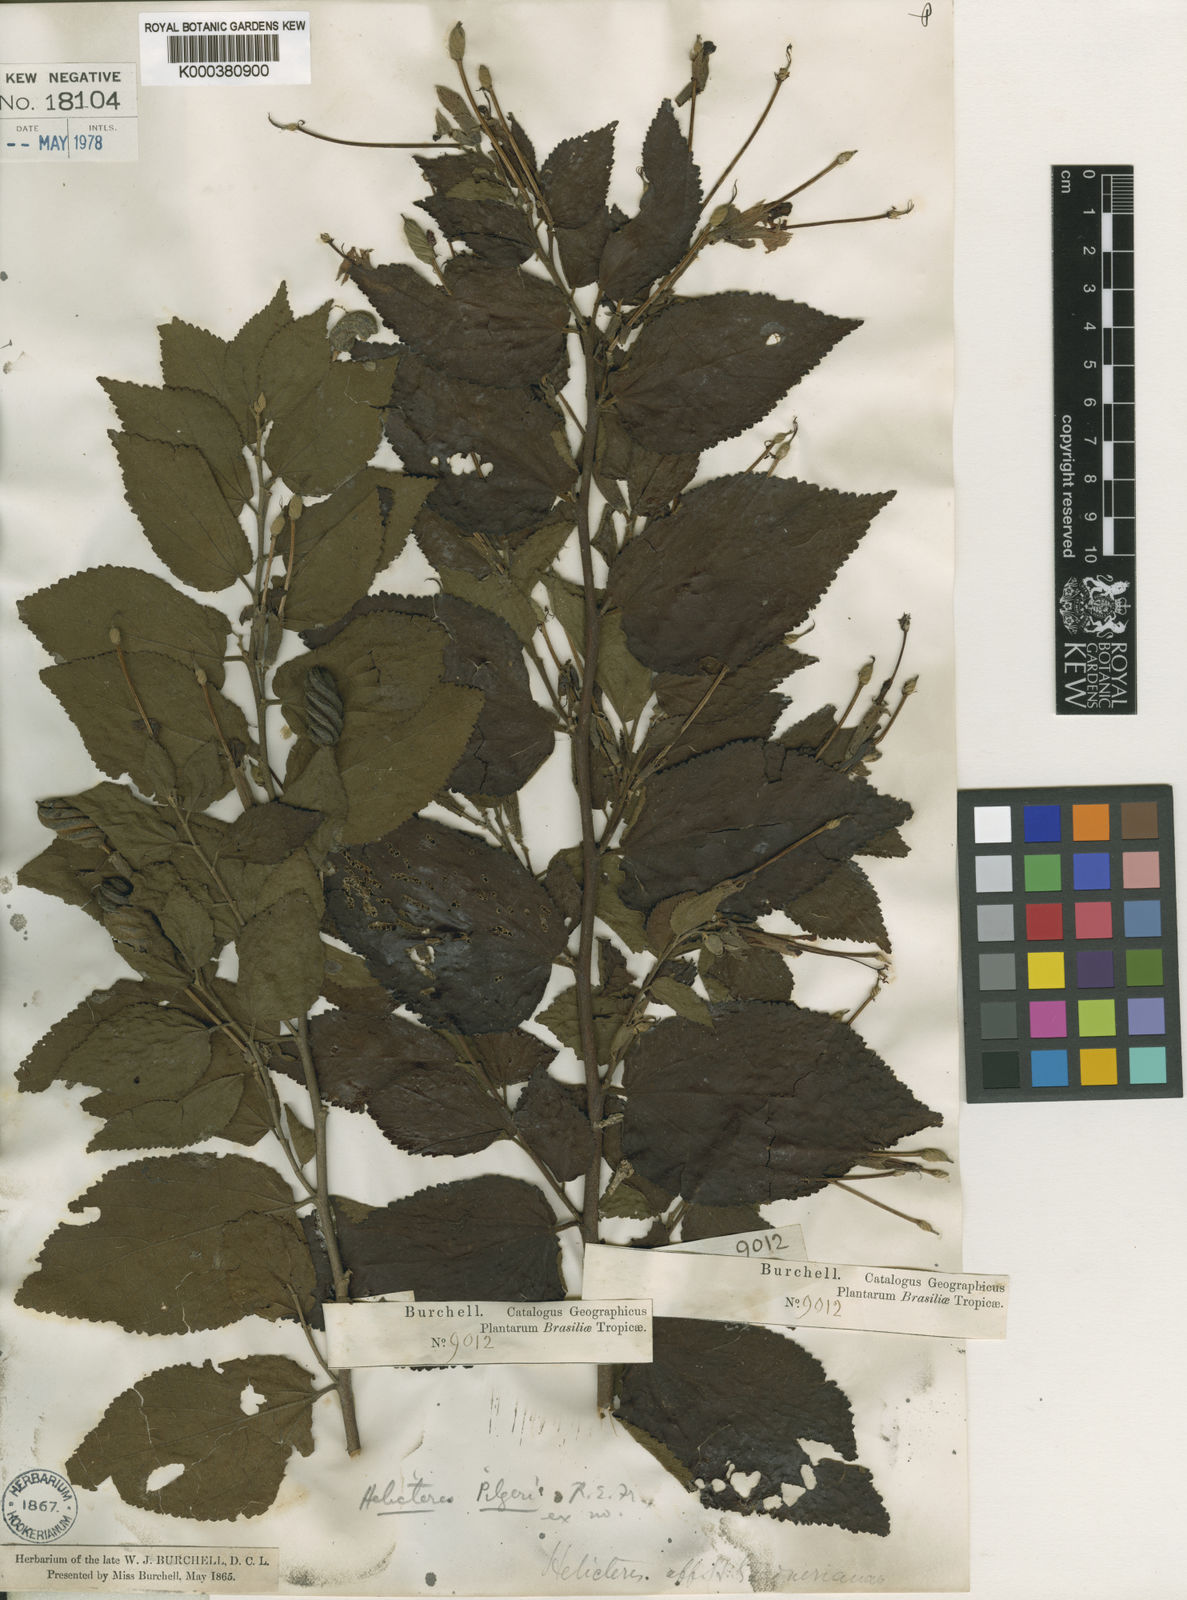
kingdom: Plantae
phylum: Tracheophyta
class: Magnoliopsida
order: Malvales
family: Malvaceae
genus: Helicteres
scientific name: Helicteres pilgeri
